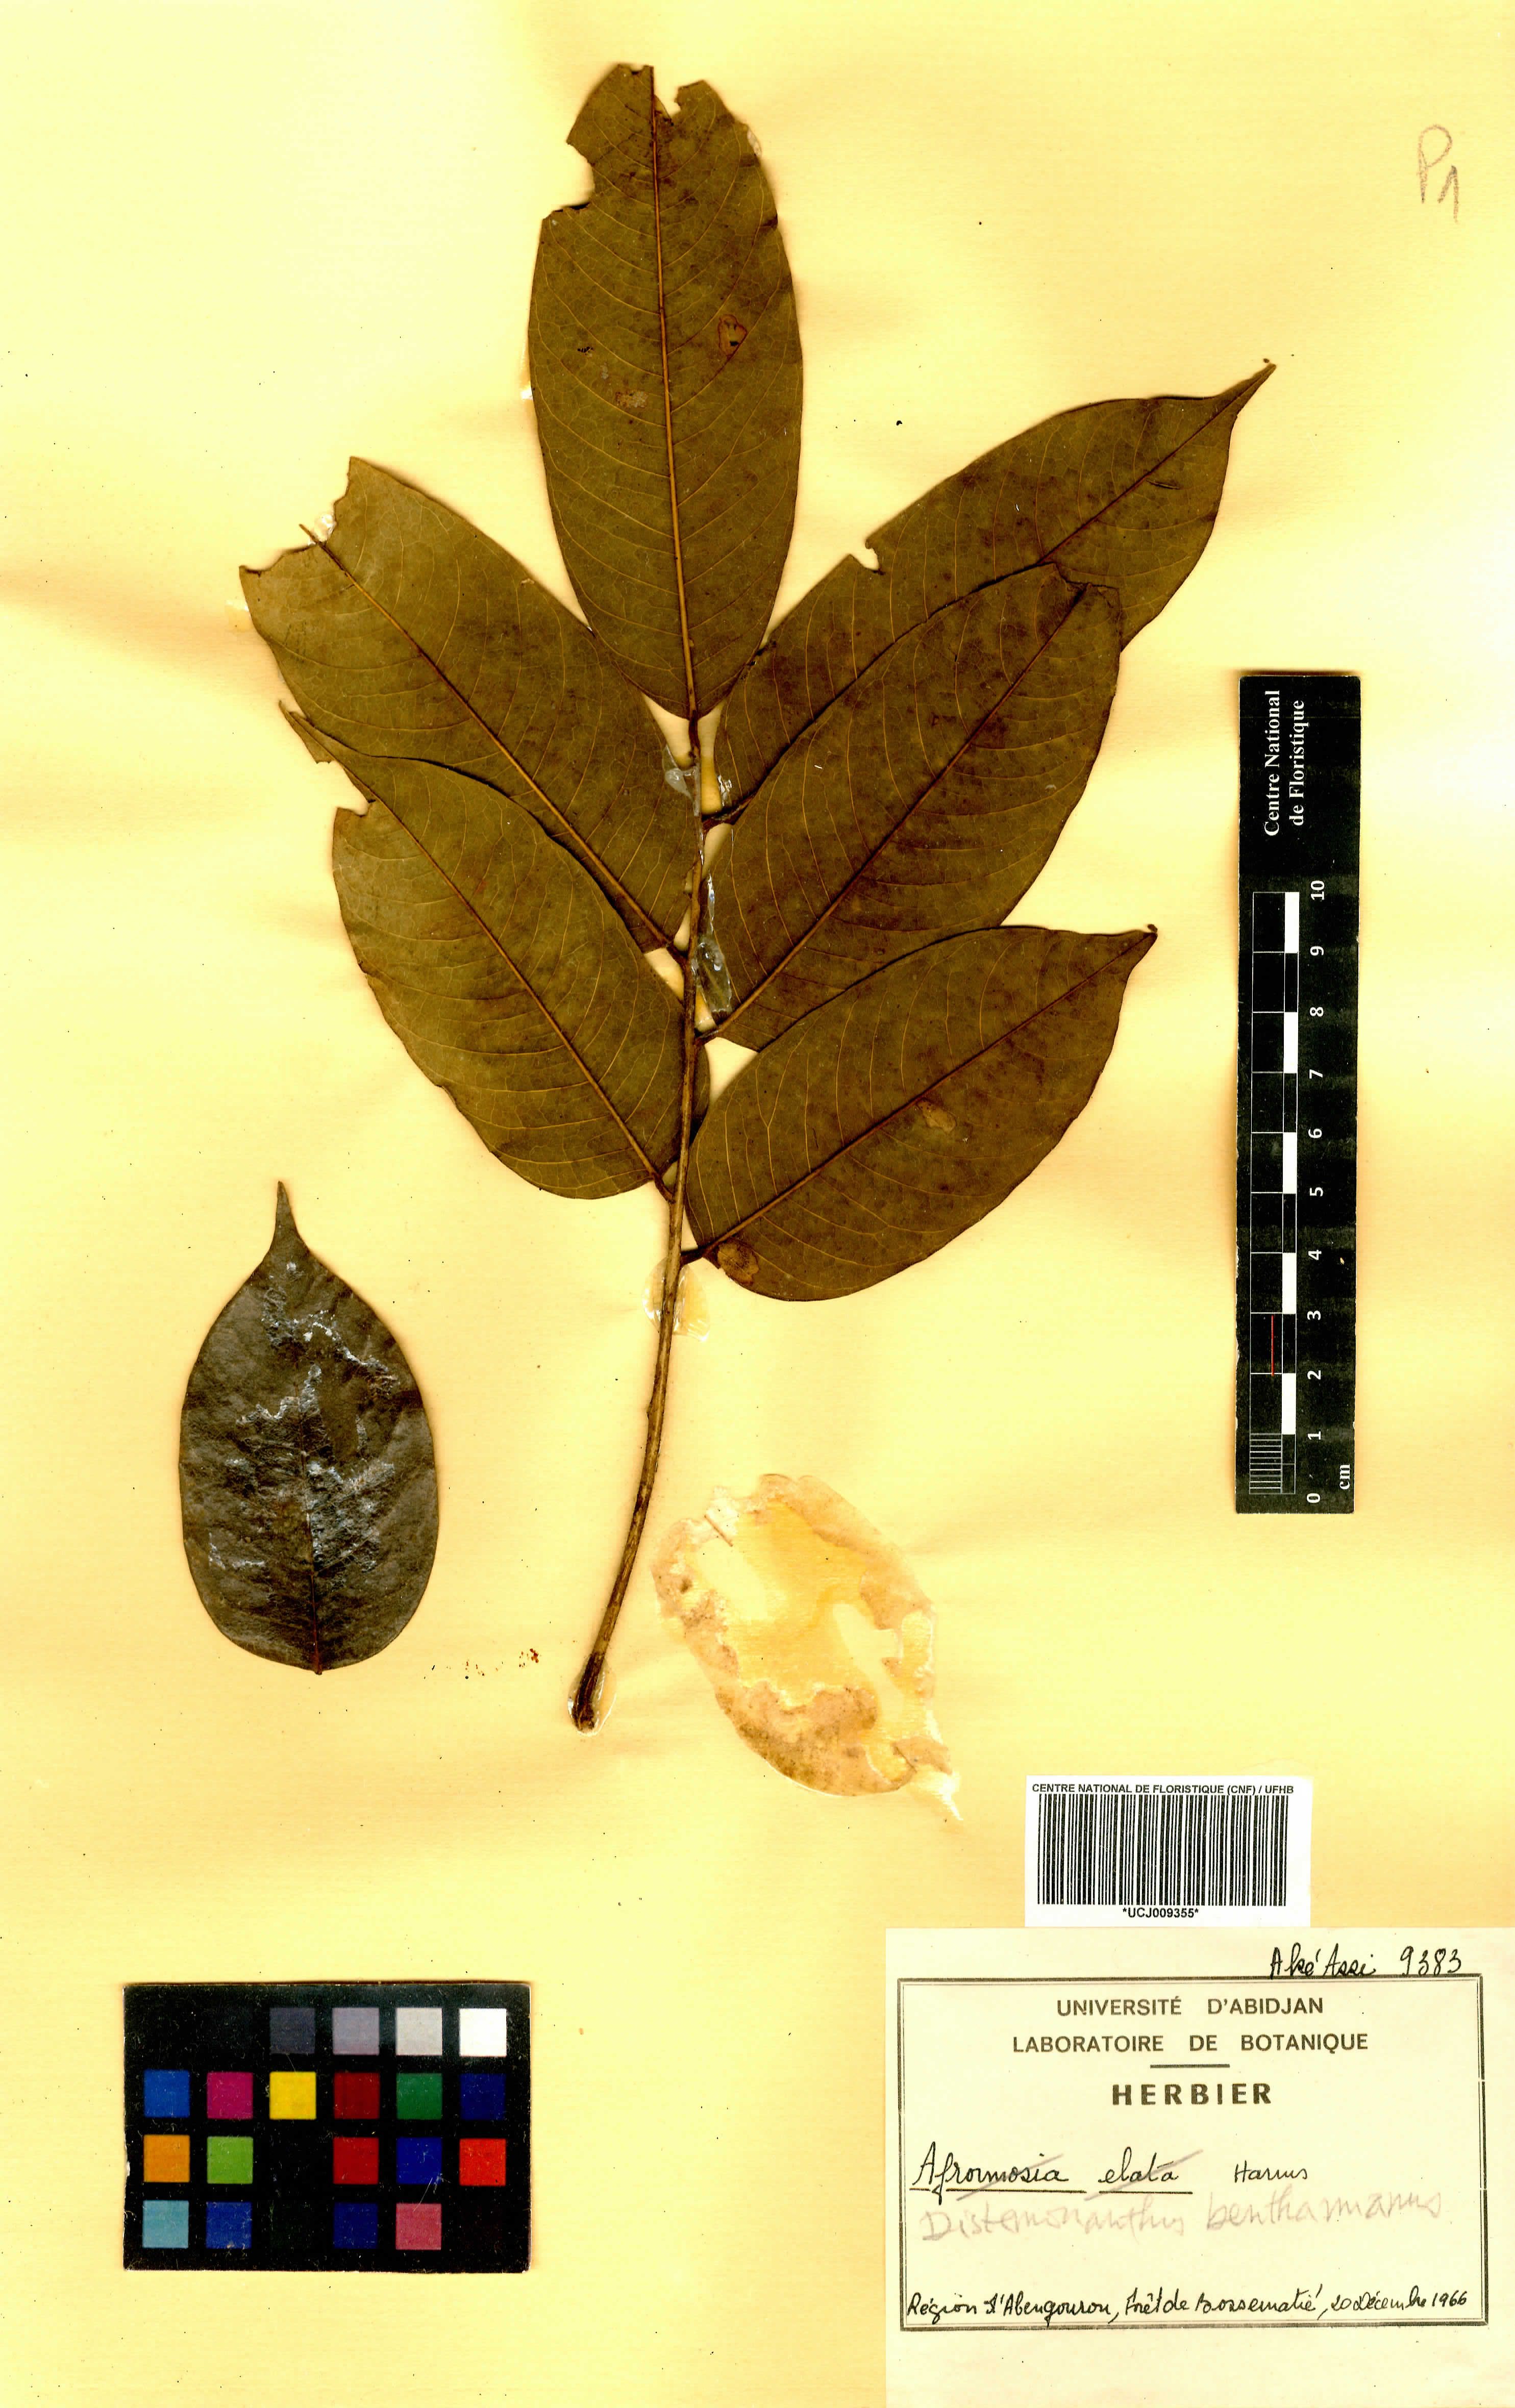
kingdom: Plantae
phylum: Tracheophyta
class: Magnoliopsida
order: Fabales
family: Fabaceae
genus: Distemonanthus
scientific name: Distemonanthus benthamianus
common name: Yellow satinwood
